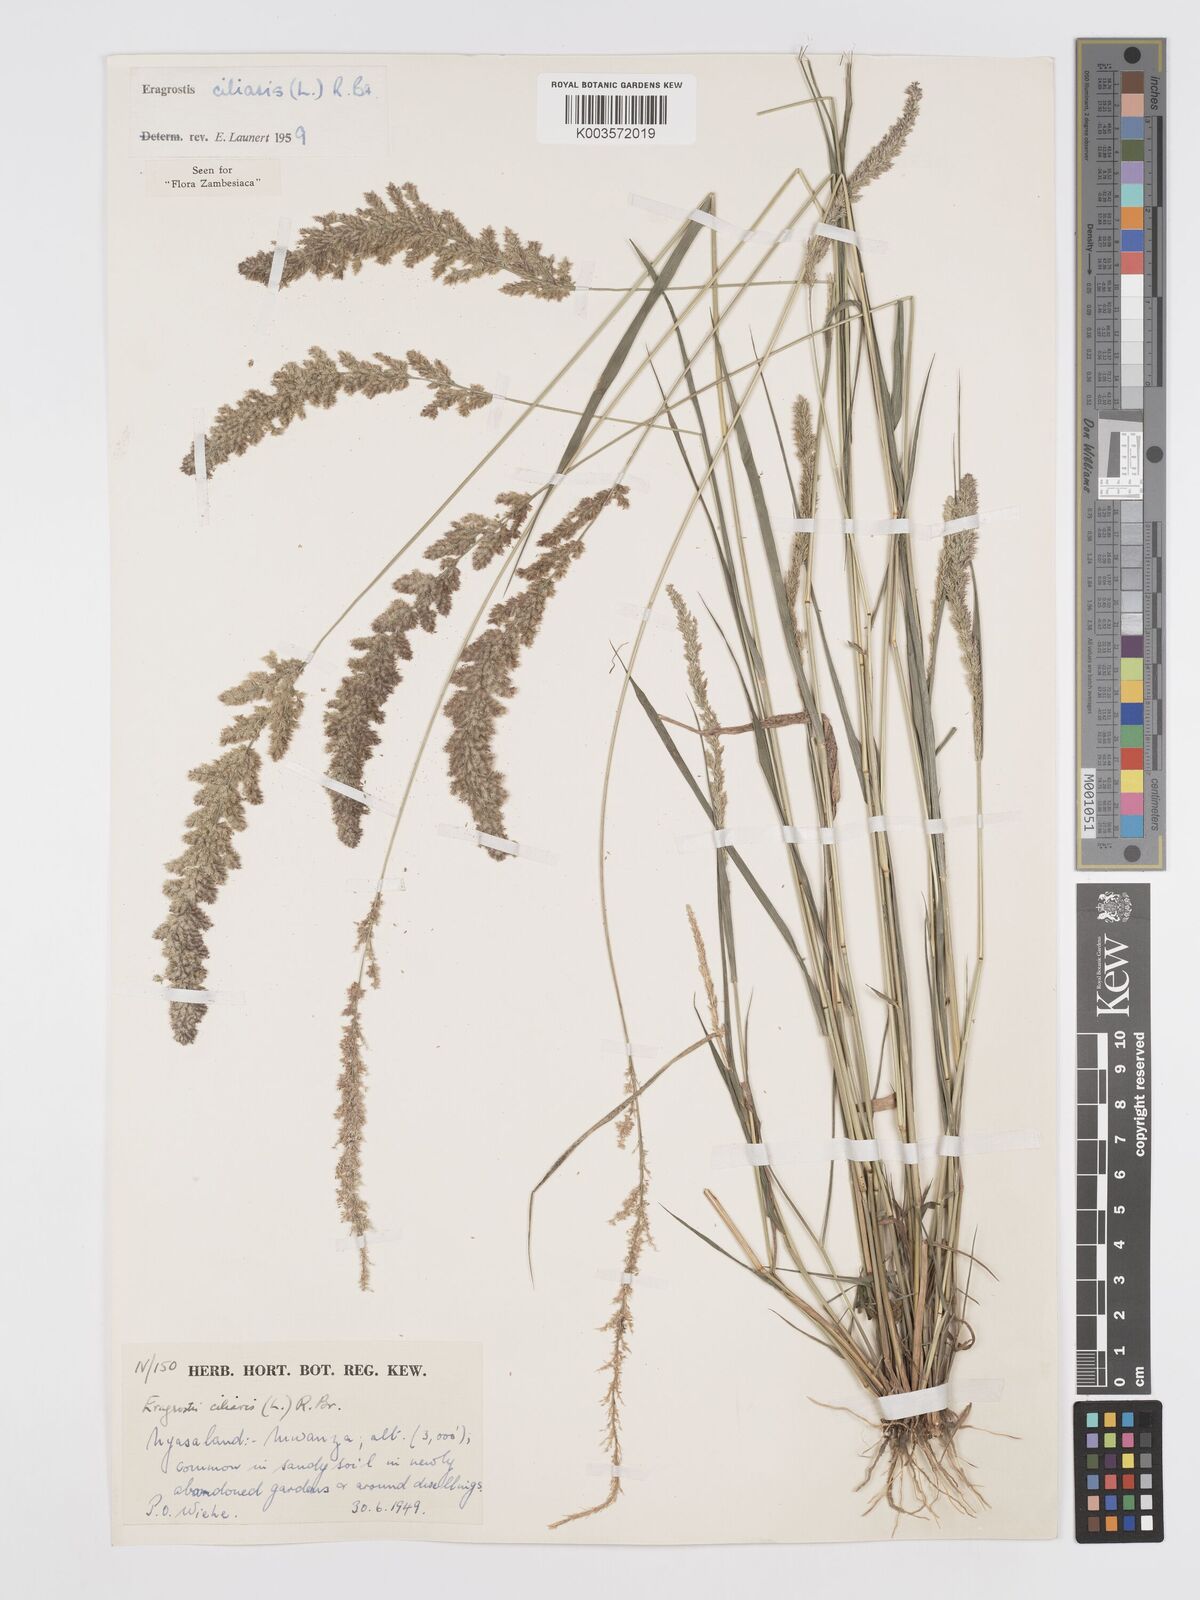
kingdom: Plantae
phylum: Tracheophyta
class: Liliopsida
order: Poales
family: Poaceae
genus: Eragrostis
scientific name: Eragrostis ciliaris
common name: Gophertail lovegrass
